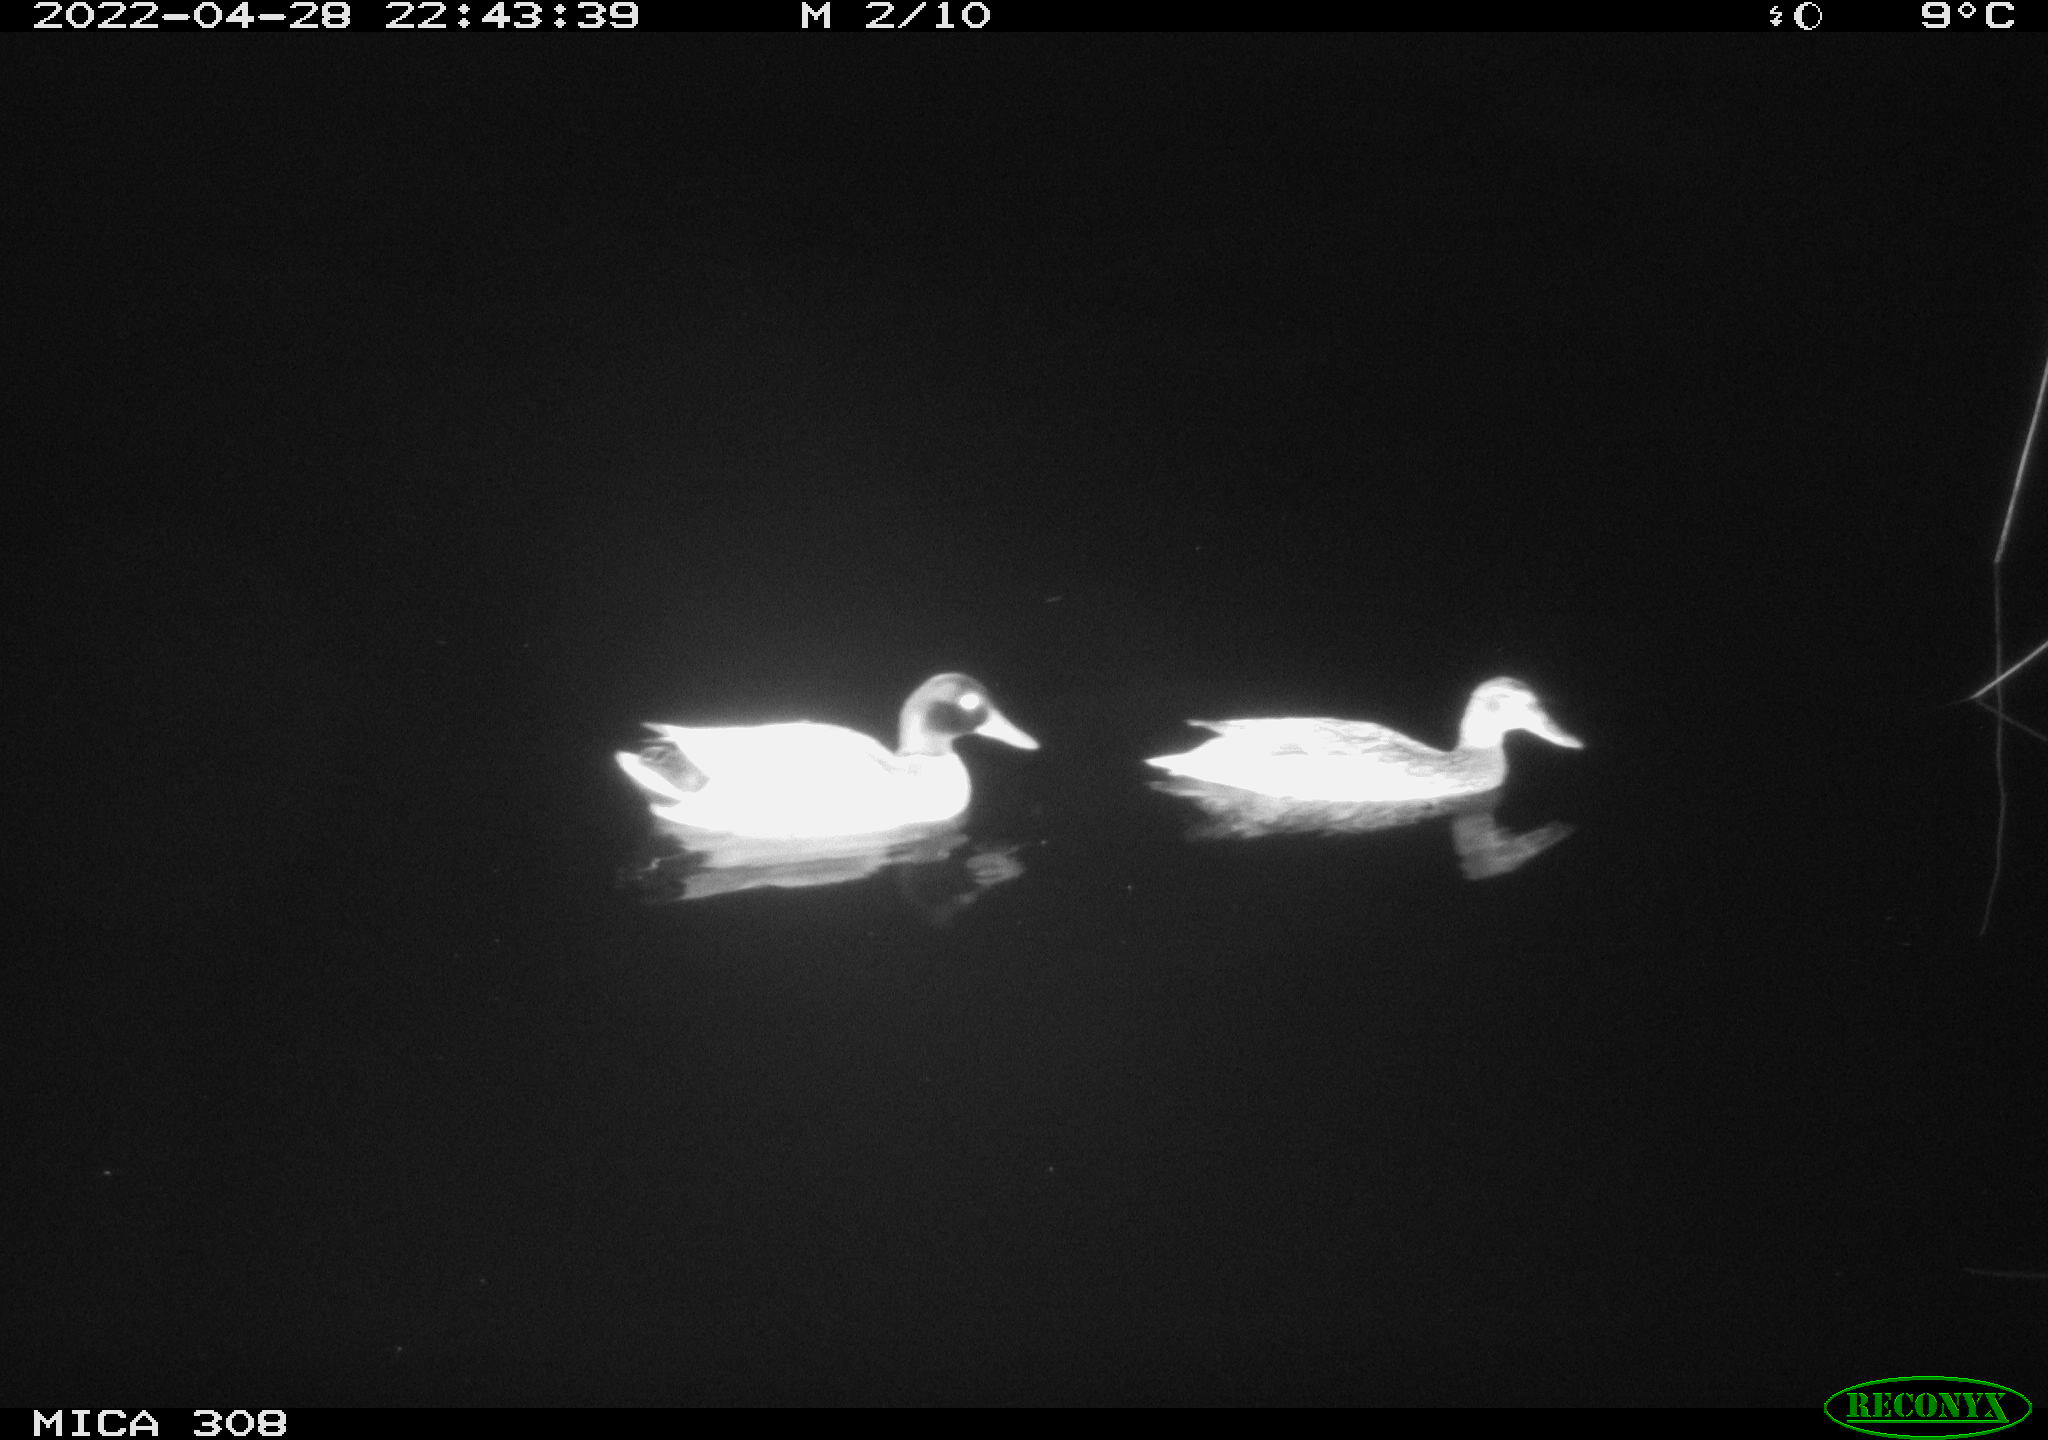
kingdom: Animalia
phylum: Chordata
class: Aves
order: Anseriformes
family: Anatidae
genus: Anas
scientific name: Anas platyrhynchos
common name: Mallard
